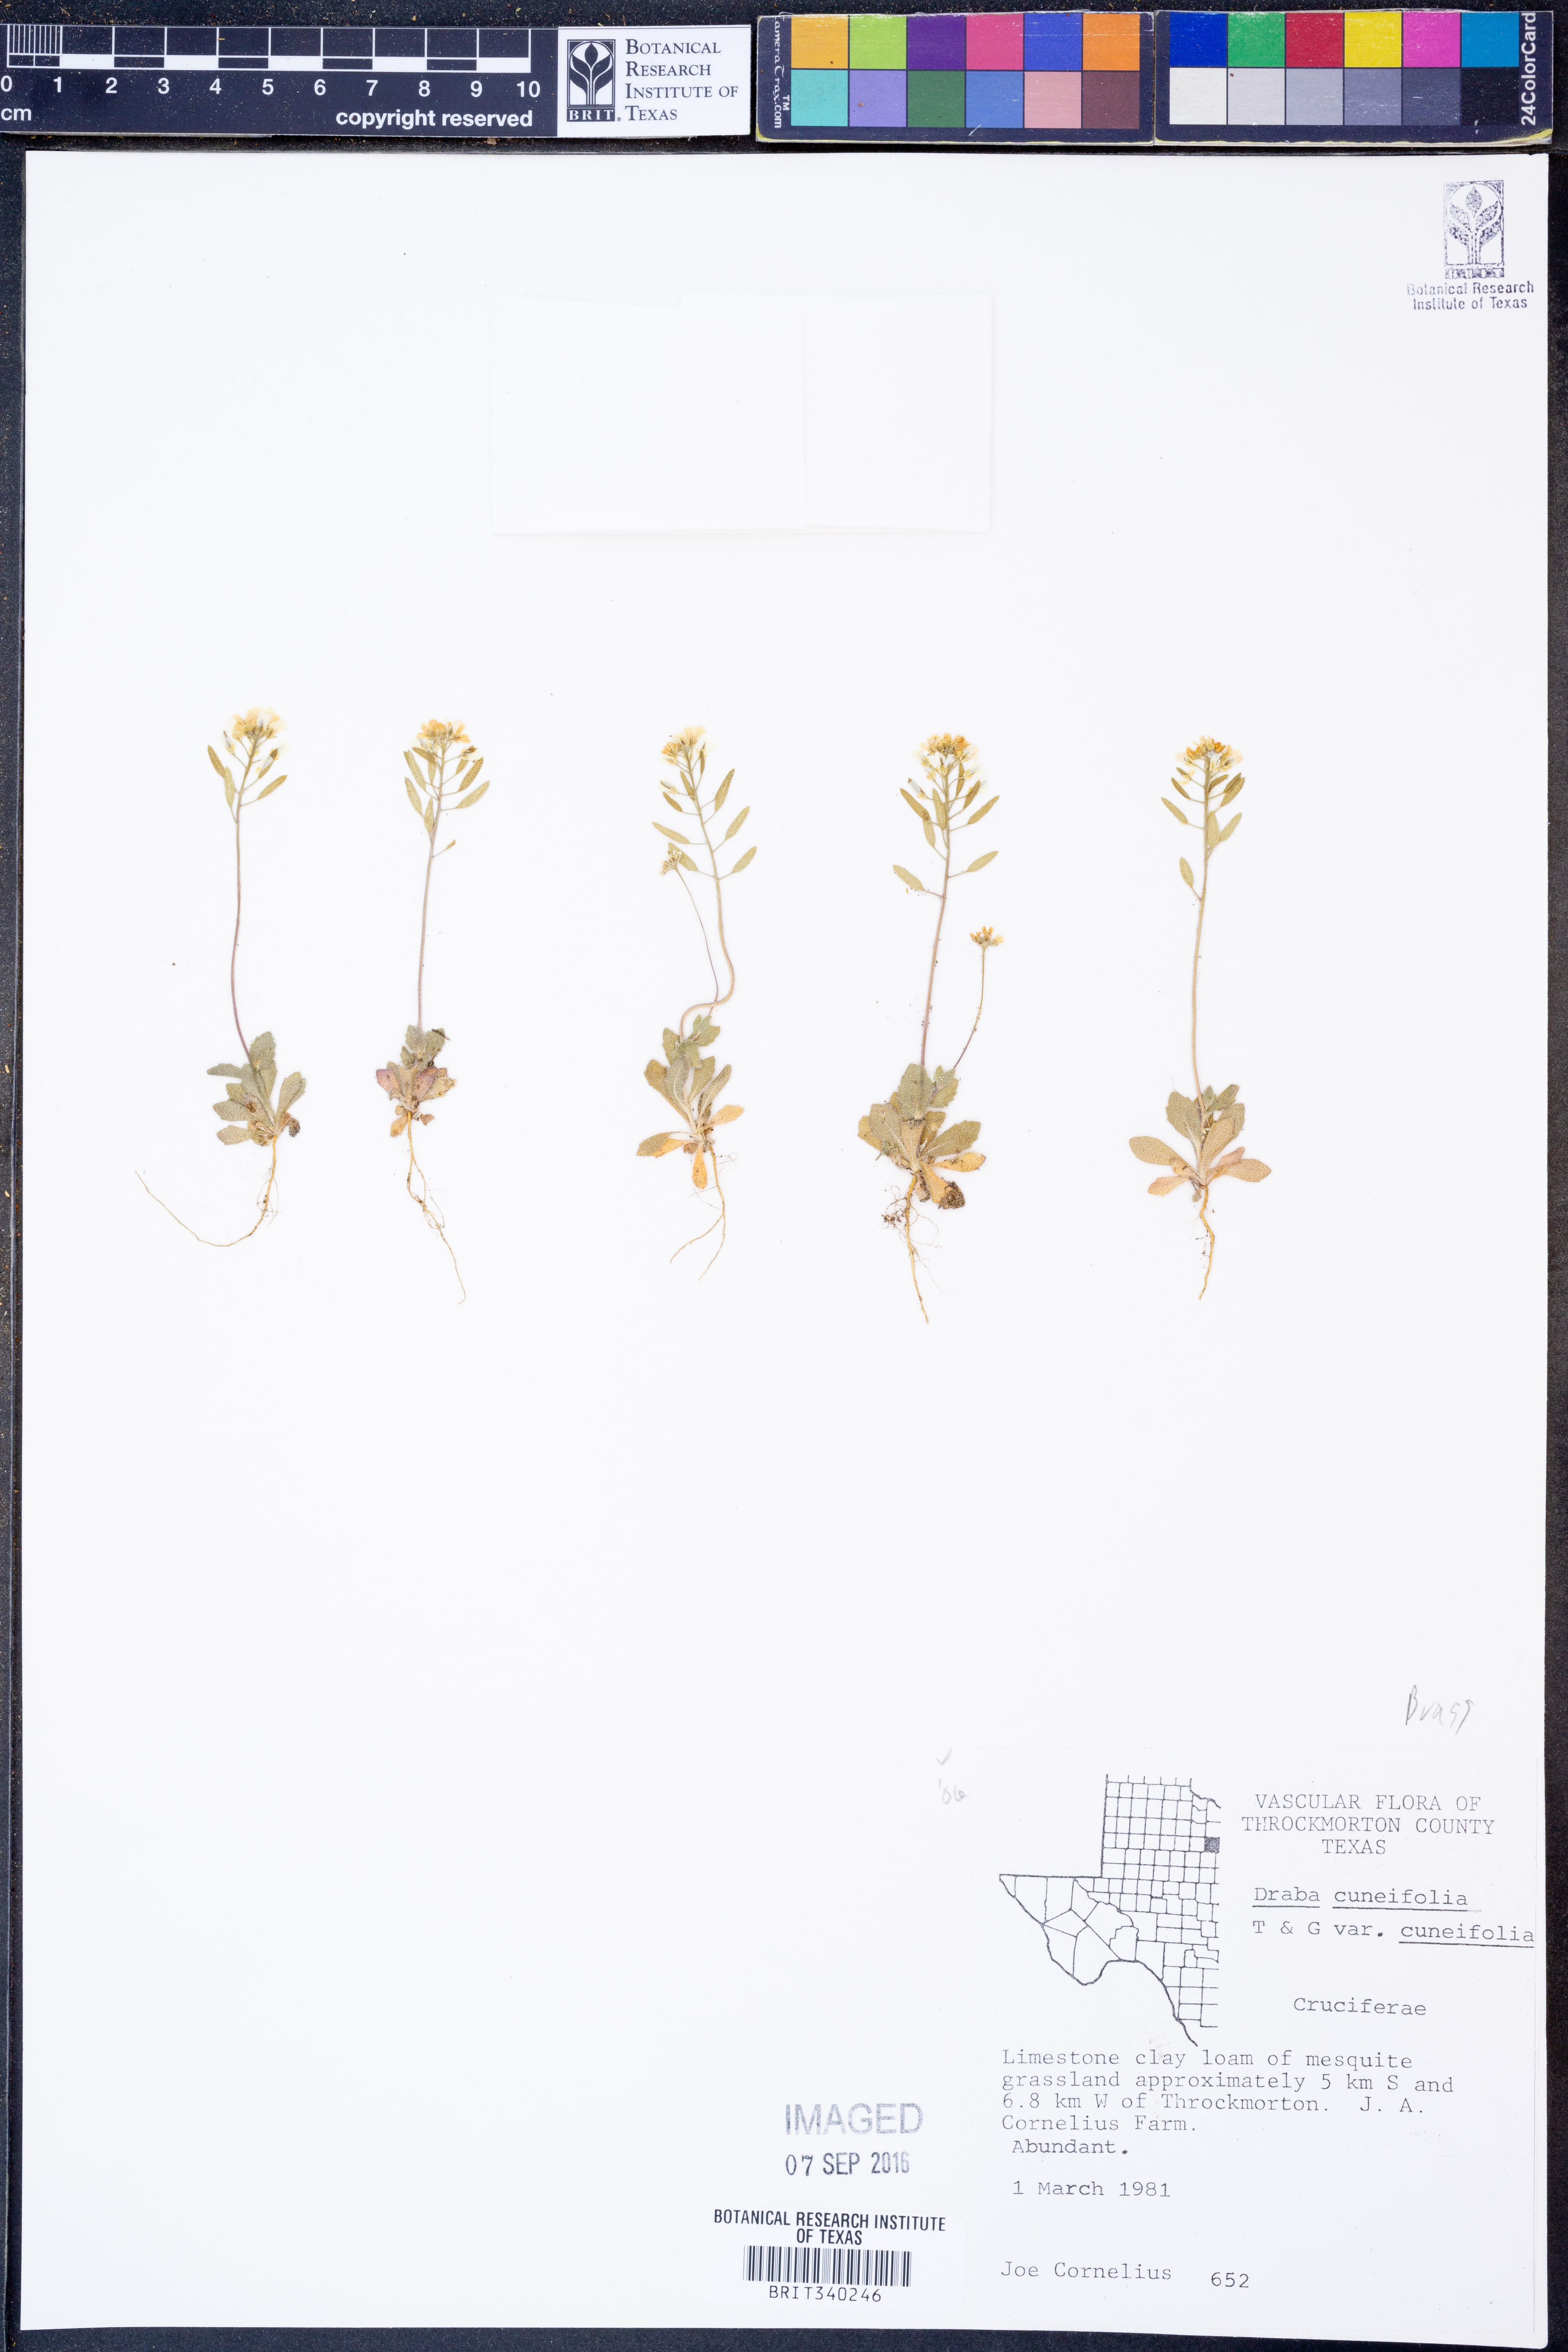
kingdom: Plantae
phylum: Tracheophyta
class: Magnoliopsida
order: Brassicales
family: Brassicaceae
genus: Tomostima
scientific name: Tomostima cuneifolia
